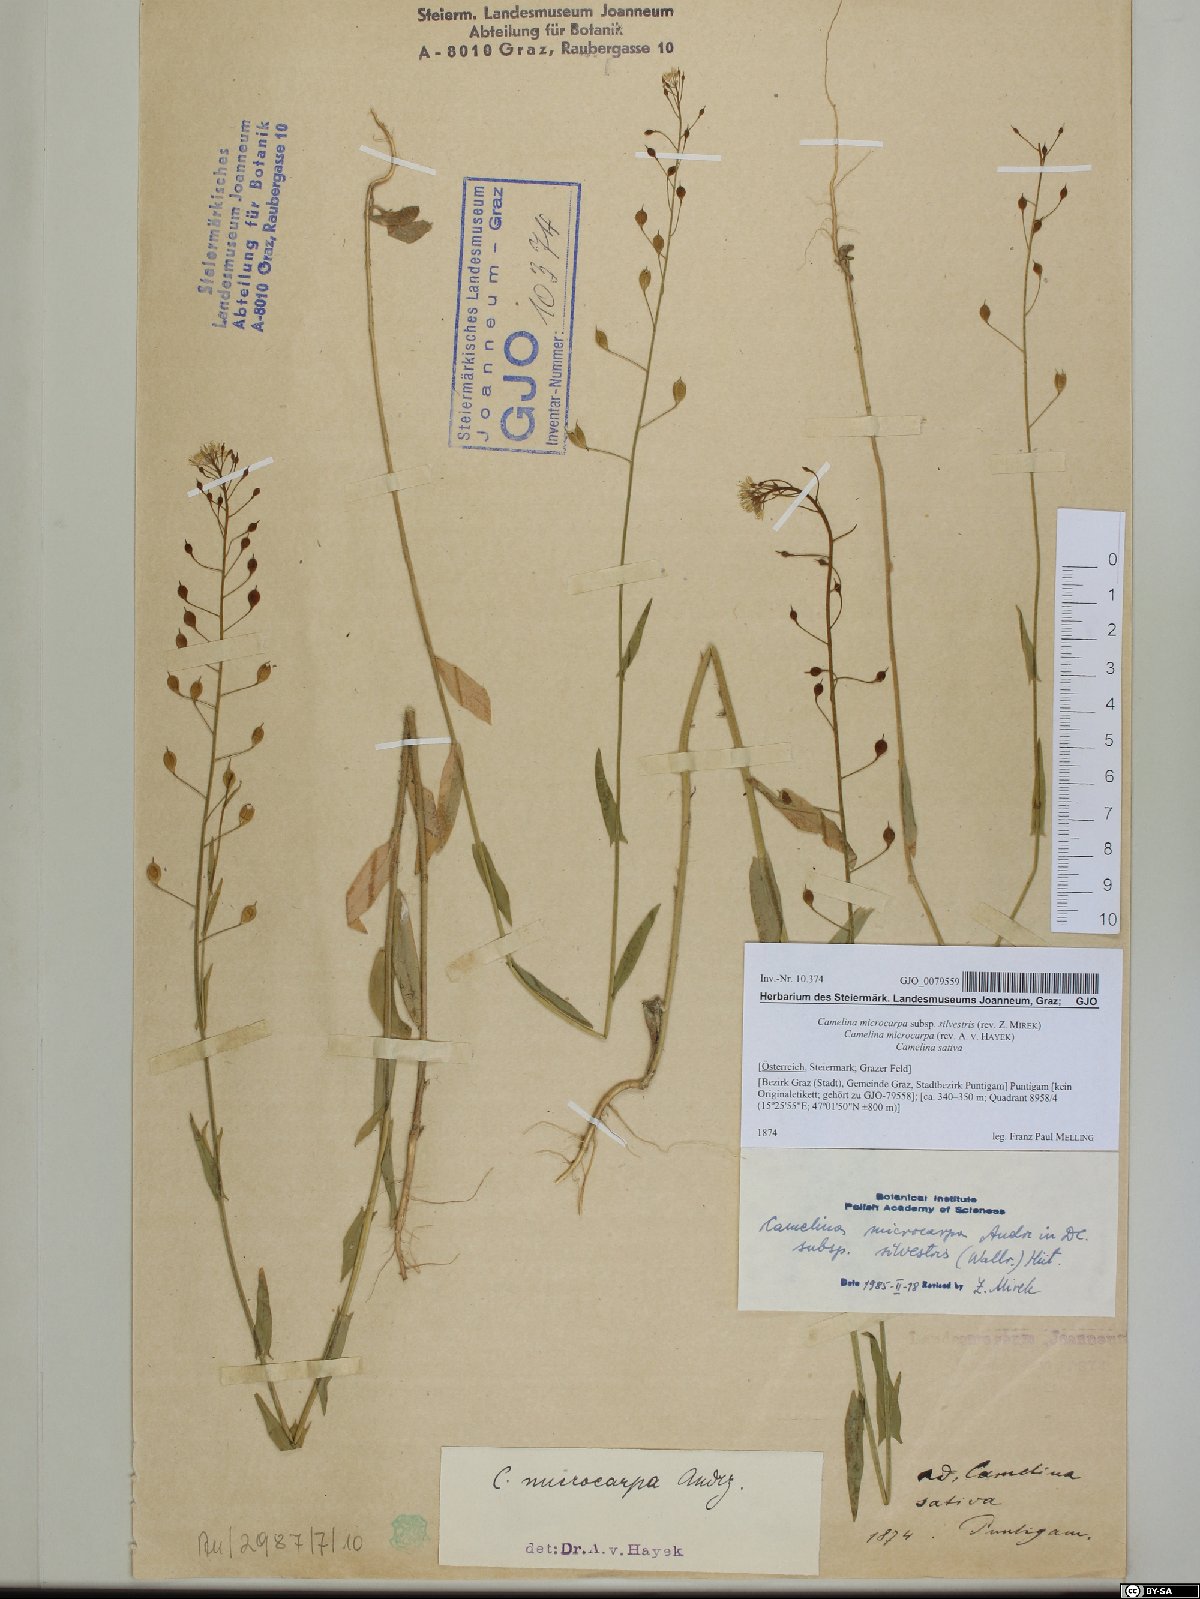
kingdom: Plantae
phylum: Tracheophyta
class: Magnoliopsida
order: Brassicales
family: Brassicaceae
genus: Camelina
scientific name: Camelina microcarpa
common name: Lesser gold-of-pleasure
